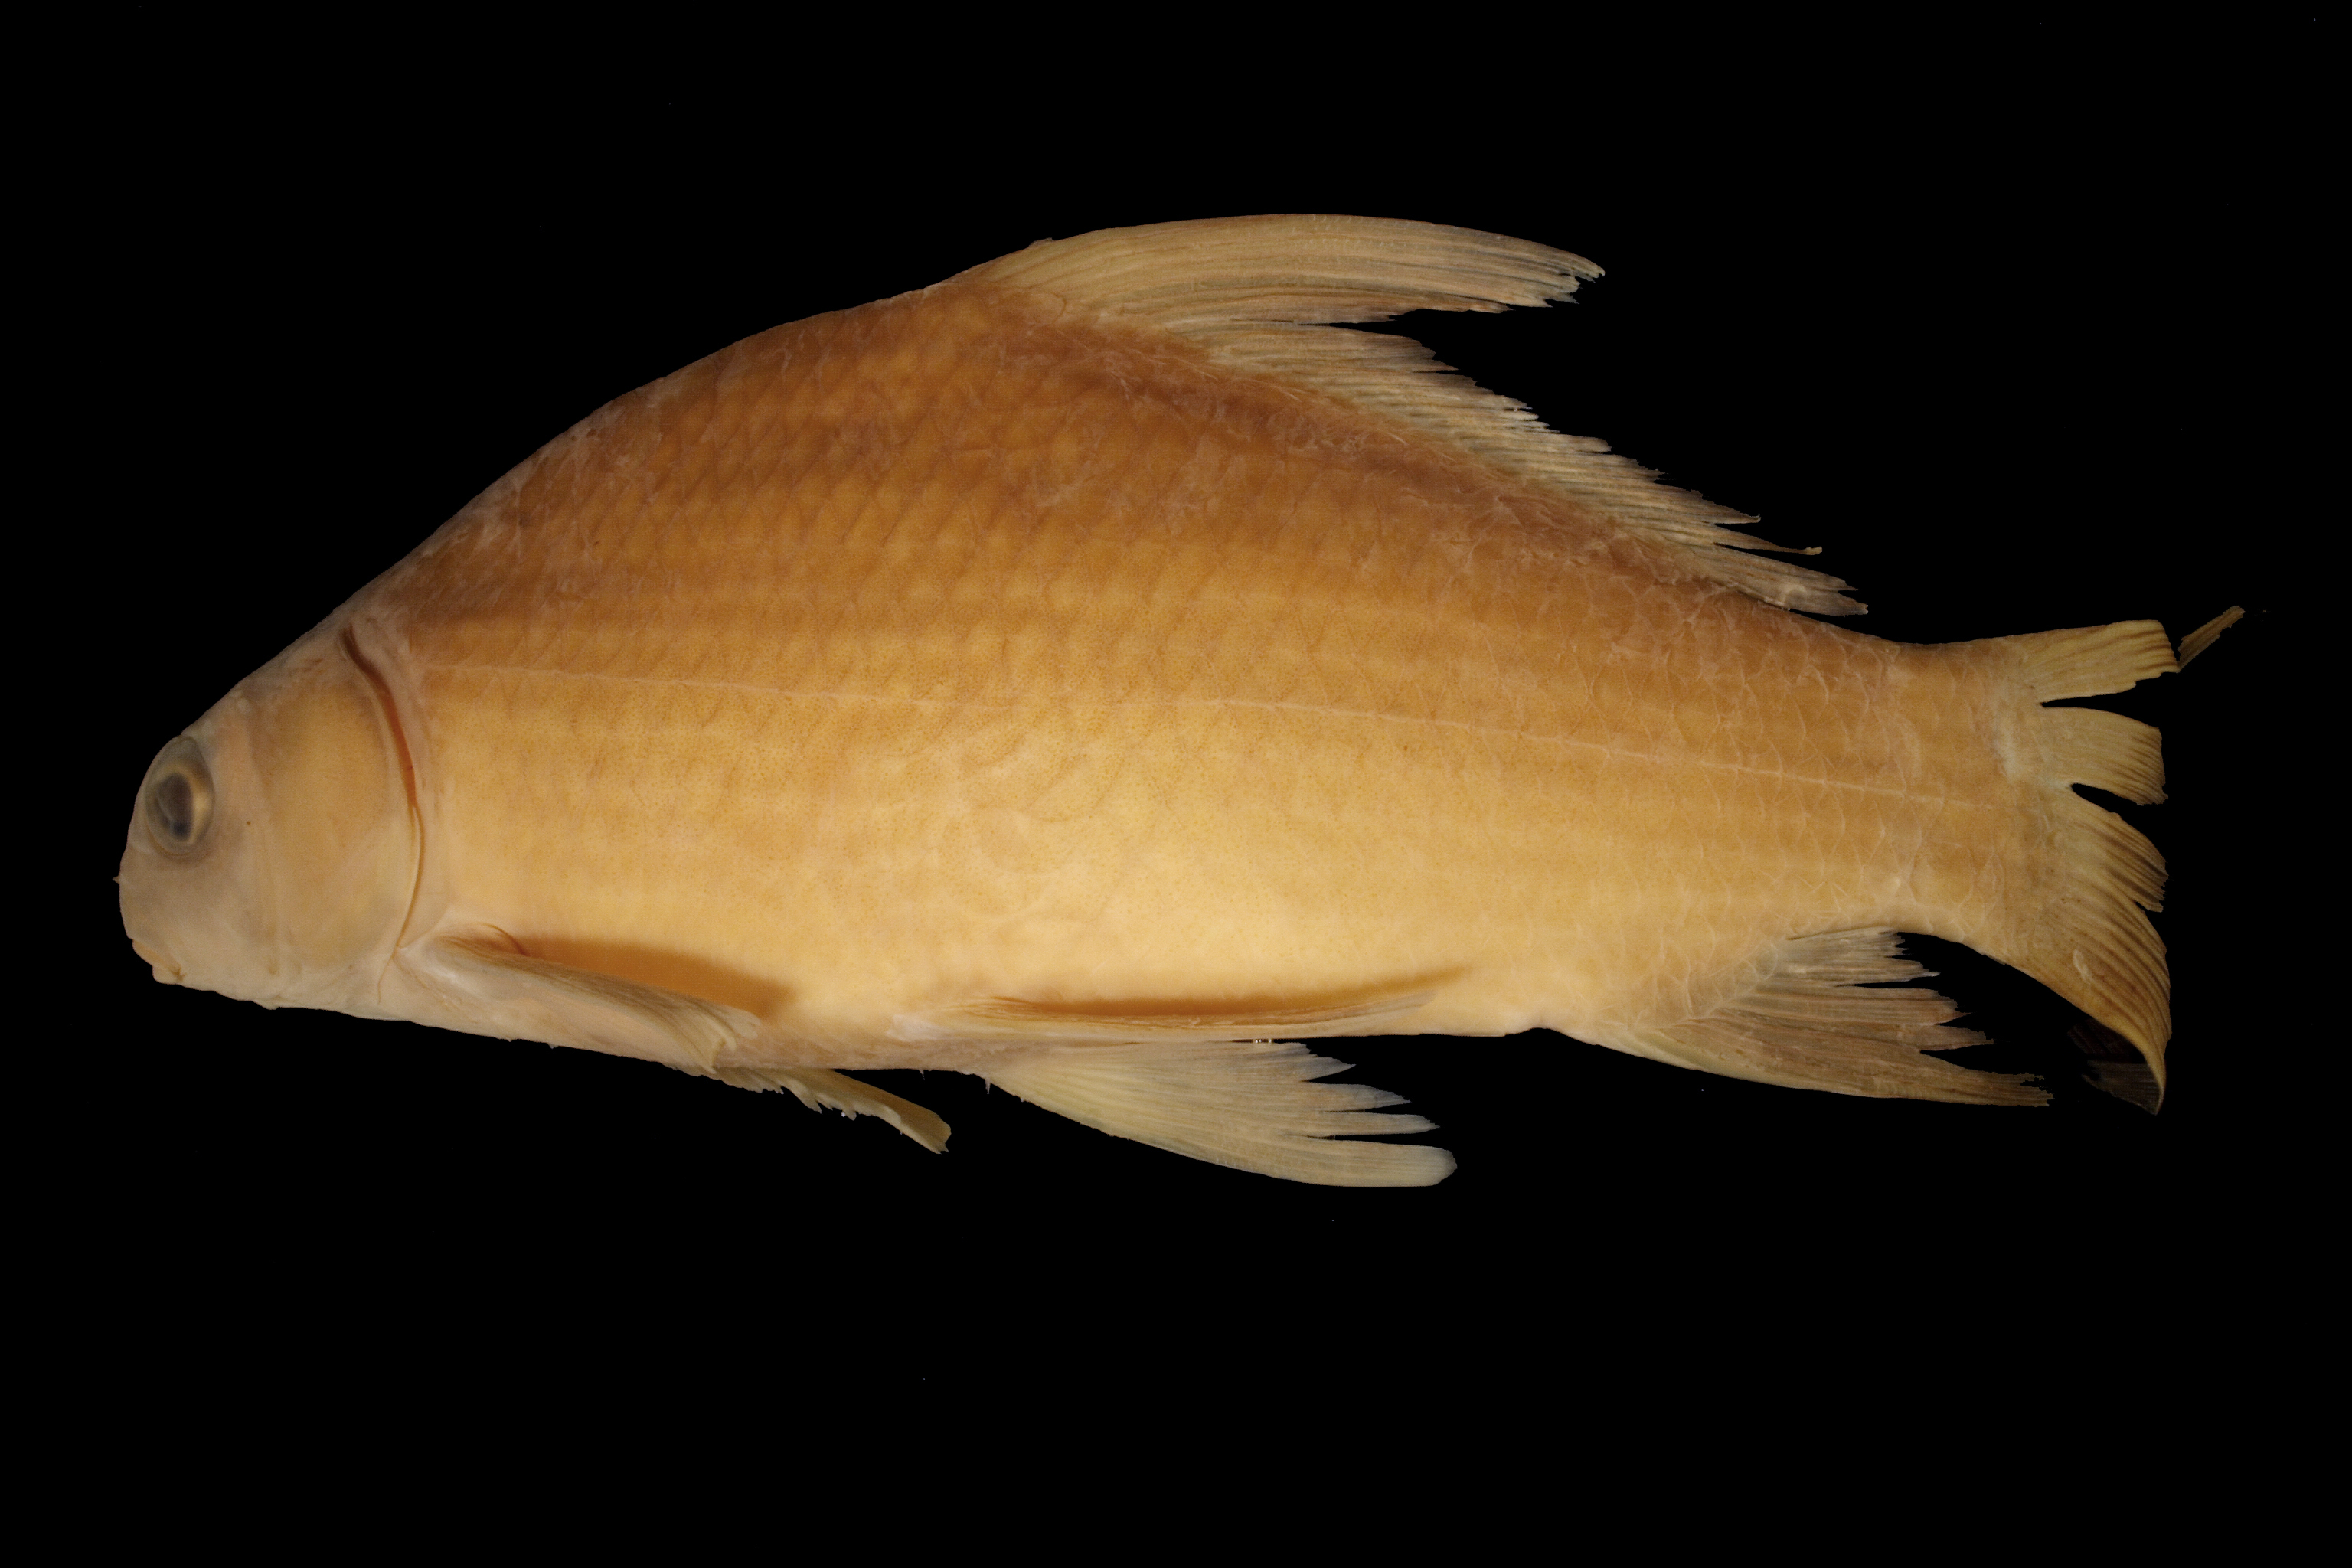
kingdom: Animalia
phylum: Chordata
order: Cypriniformes
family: Catostomidae
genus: Ictiobus
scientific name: Ictiobus cyprinellus
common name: Bigmouth buffalo
